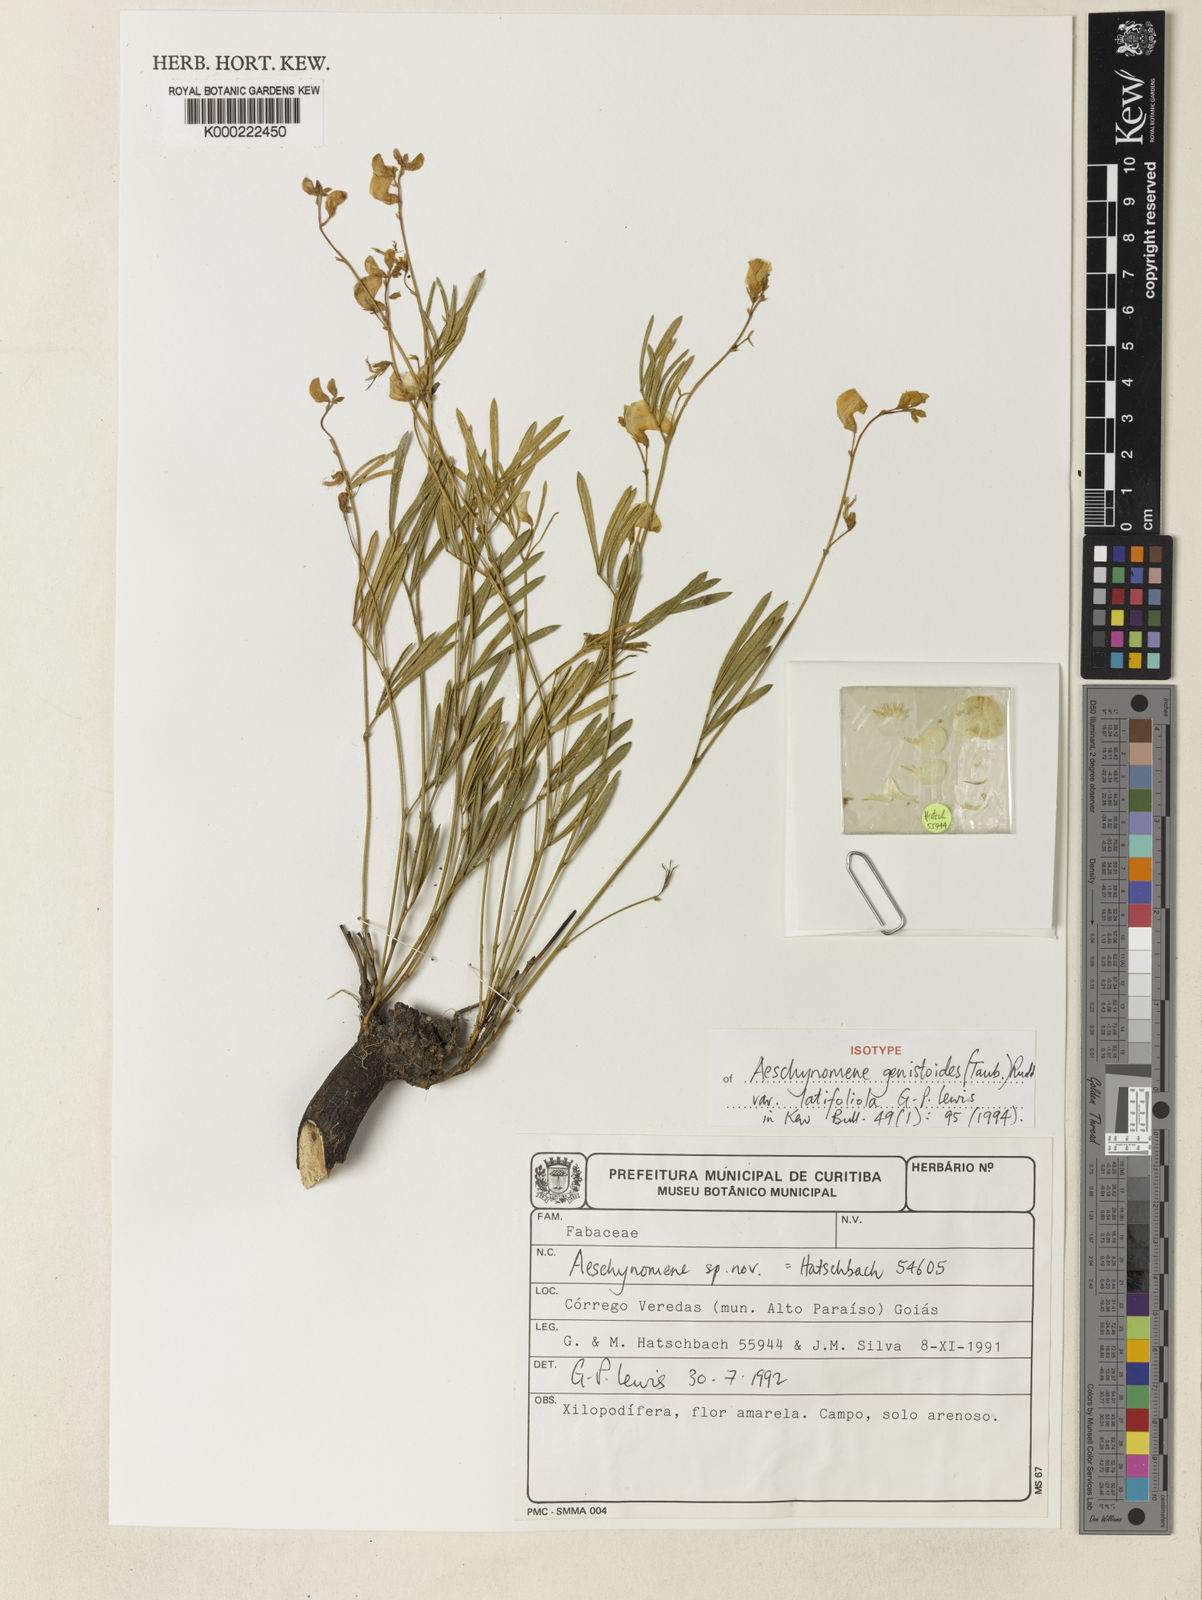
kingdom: Plantae
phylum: Tracheophyta
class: Magnoliopsida
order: Fabales
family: Fabaceae
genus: Ctenodon
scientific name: Ctenodon genistoides
